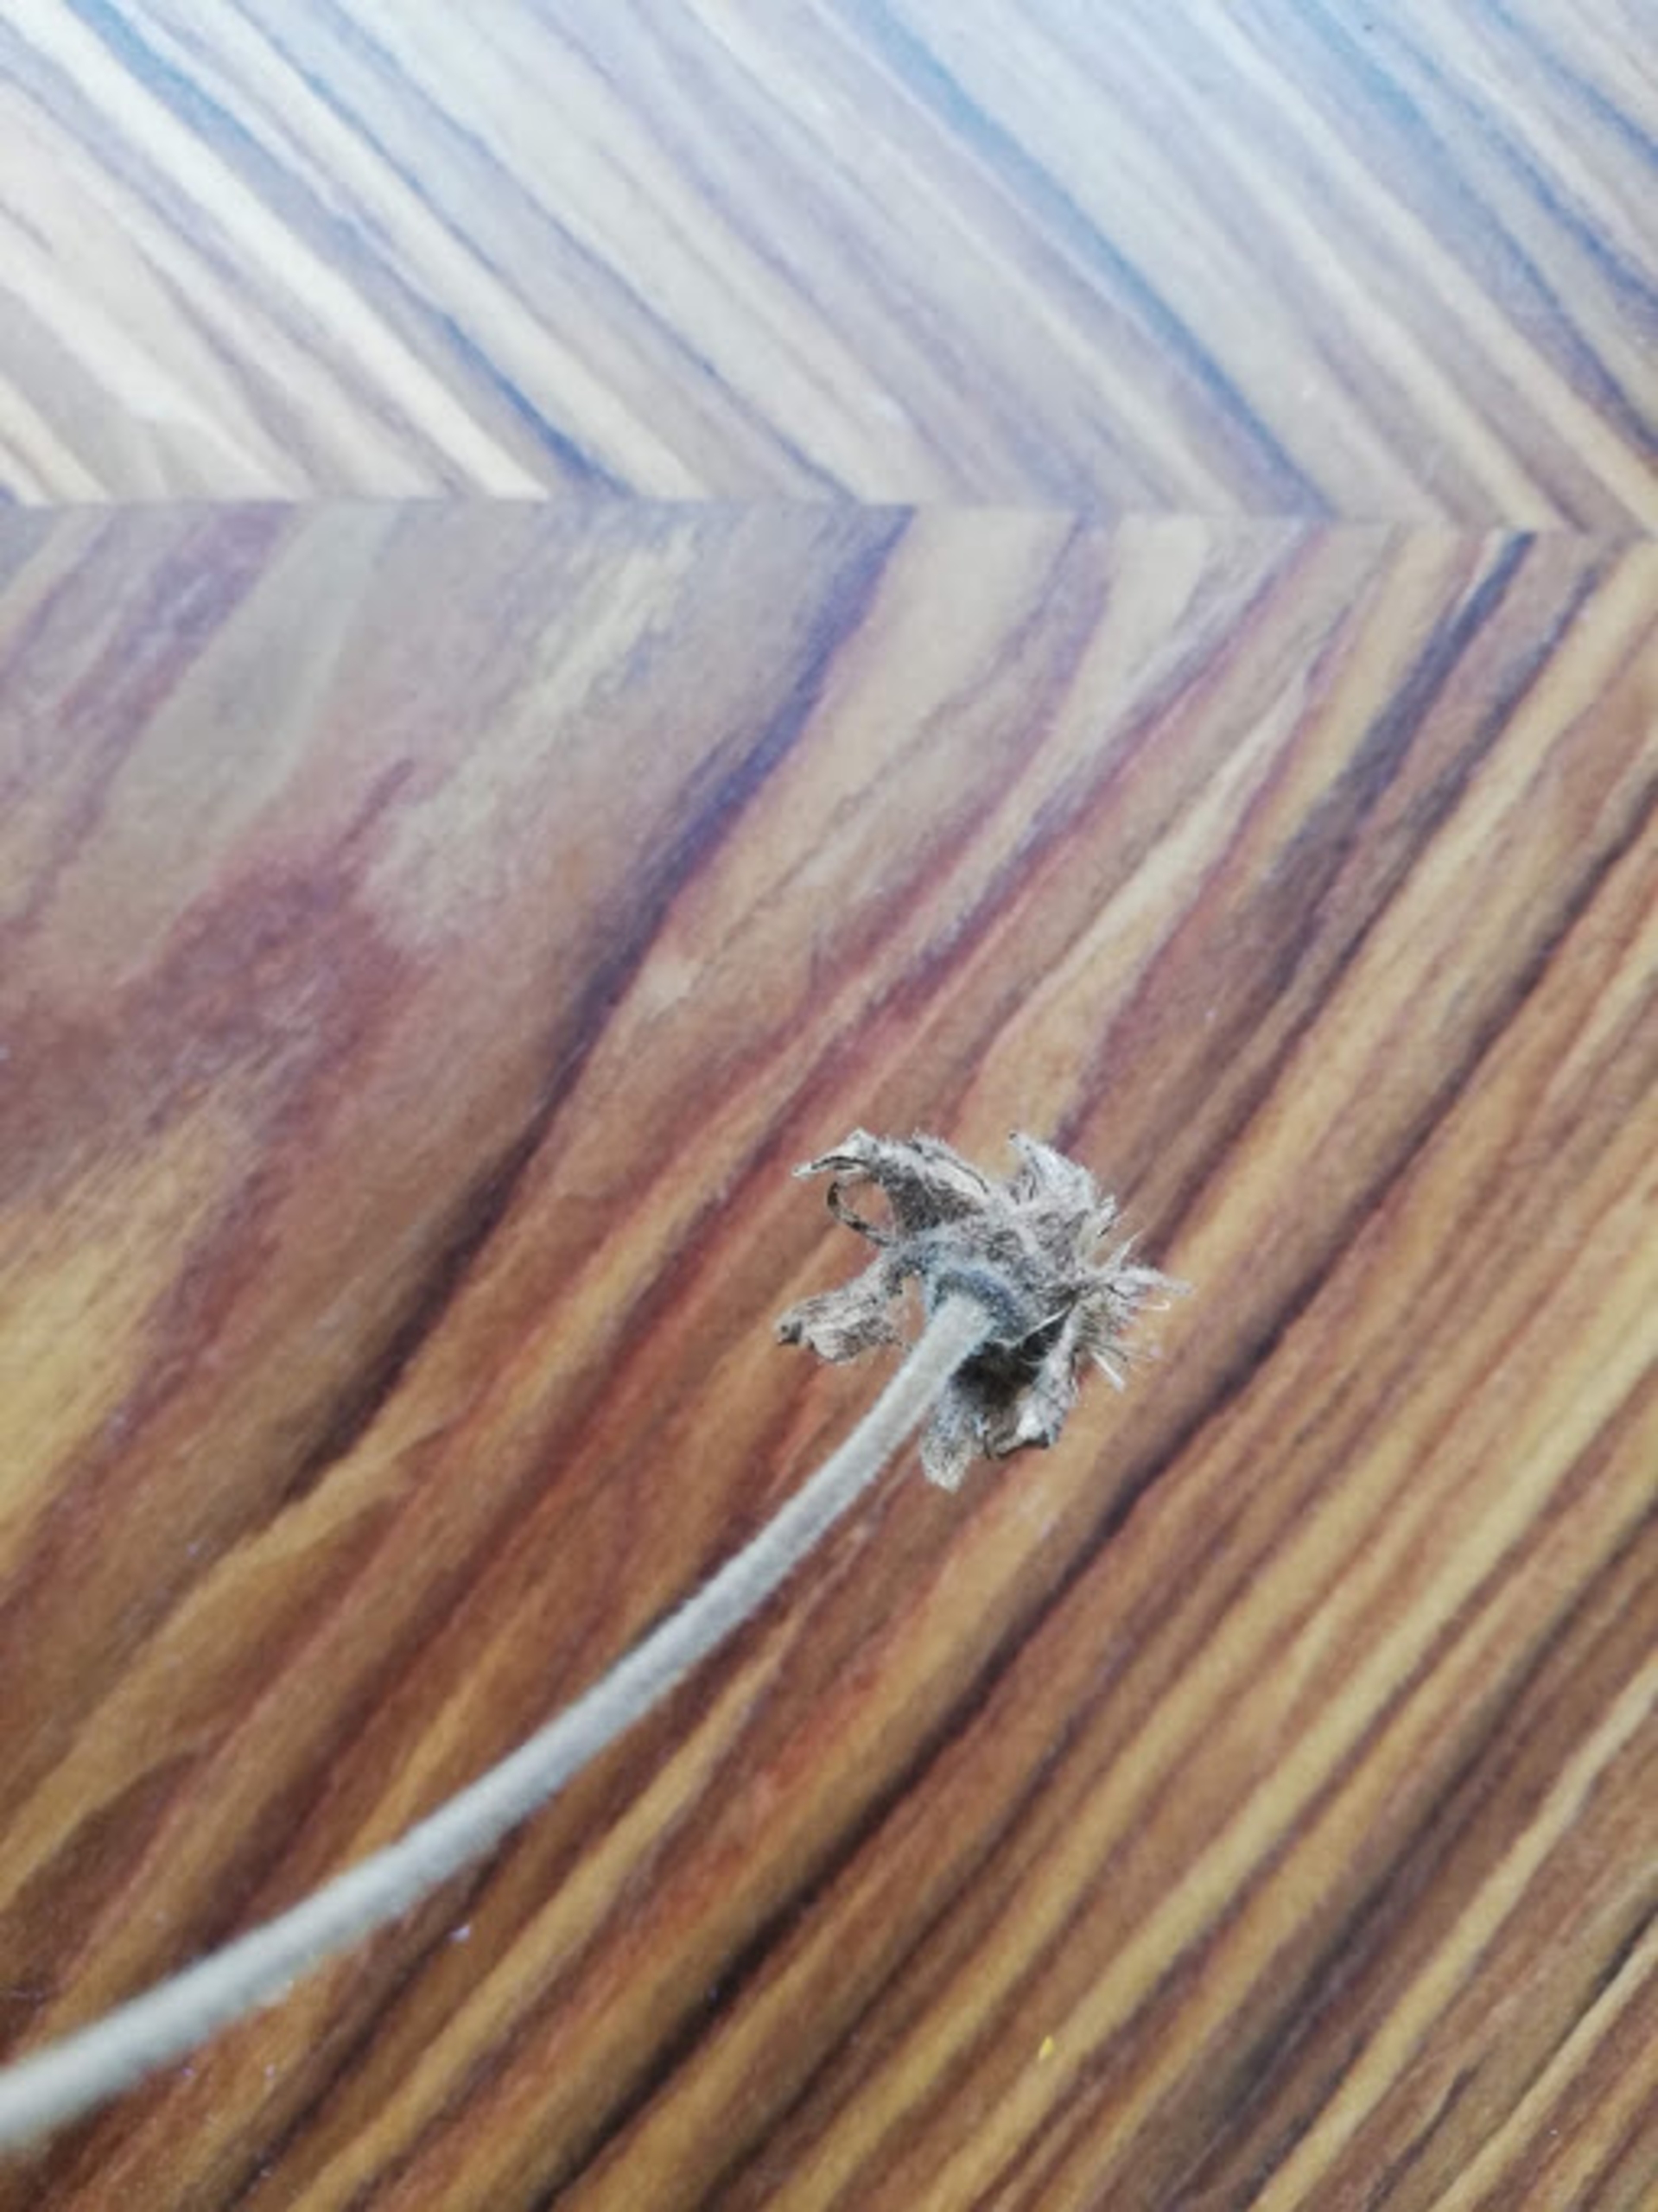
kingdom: Plantae
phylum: Tracheophyta
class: Magnoliopsida
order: Rosales
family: Rosaceae
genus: Geum
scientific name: Geum rivale
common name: Eng-nellikerod
